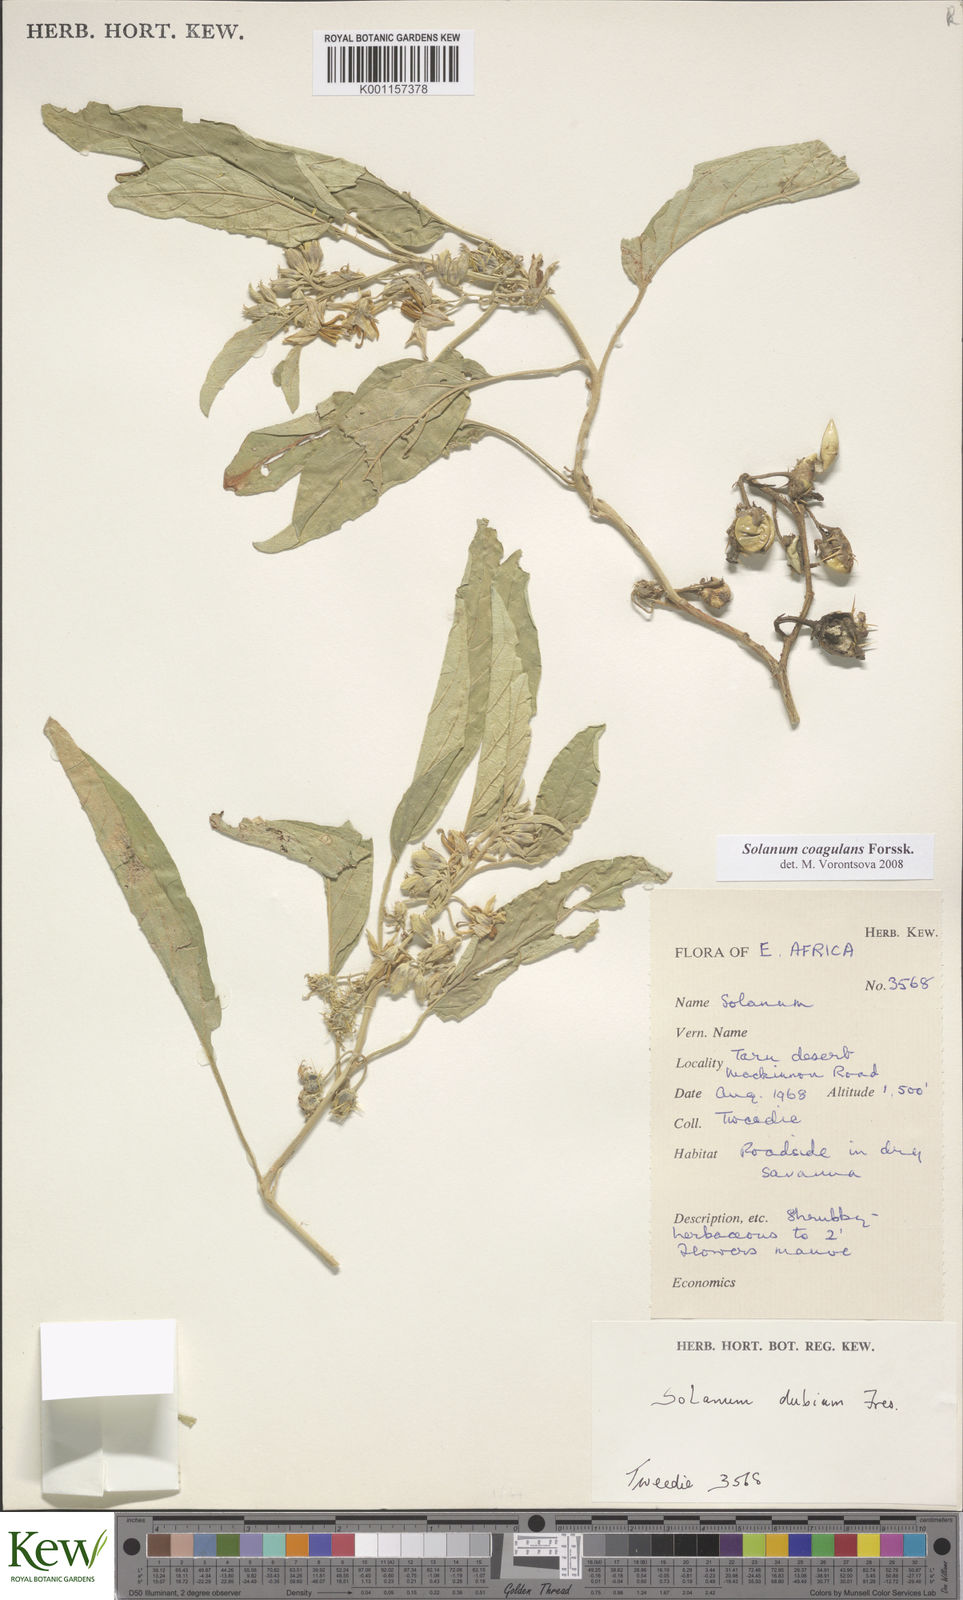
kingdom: Plantae
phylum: Tracheophyta
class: Magnoliopsida
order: Solanales
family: Solanaceae
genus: Solanum
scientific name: Solanum coagulans
